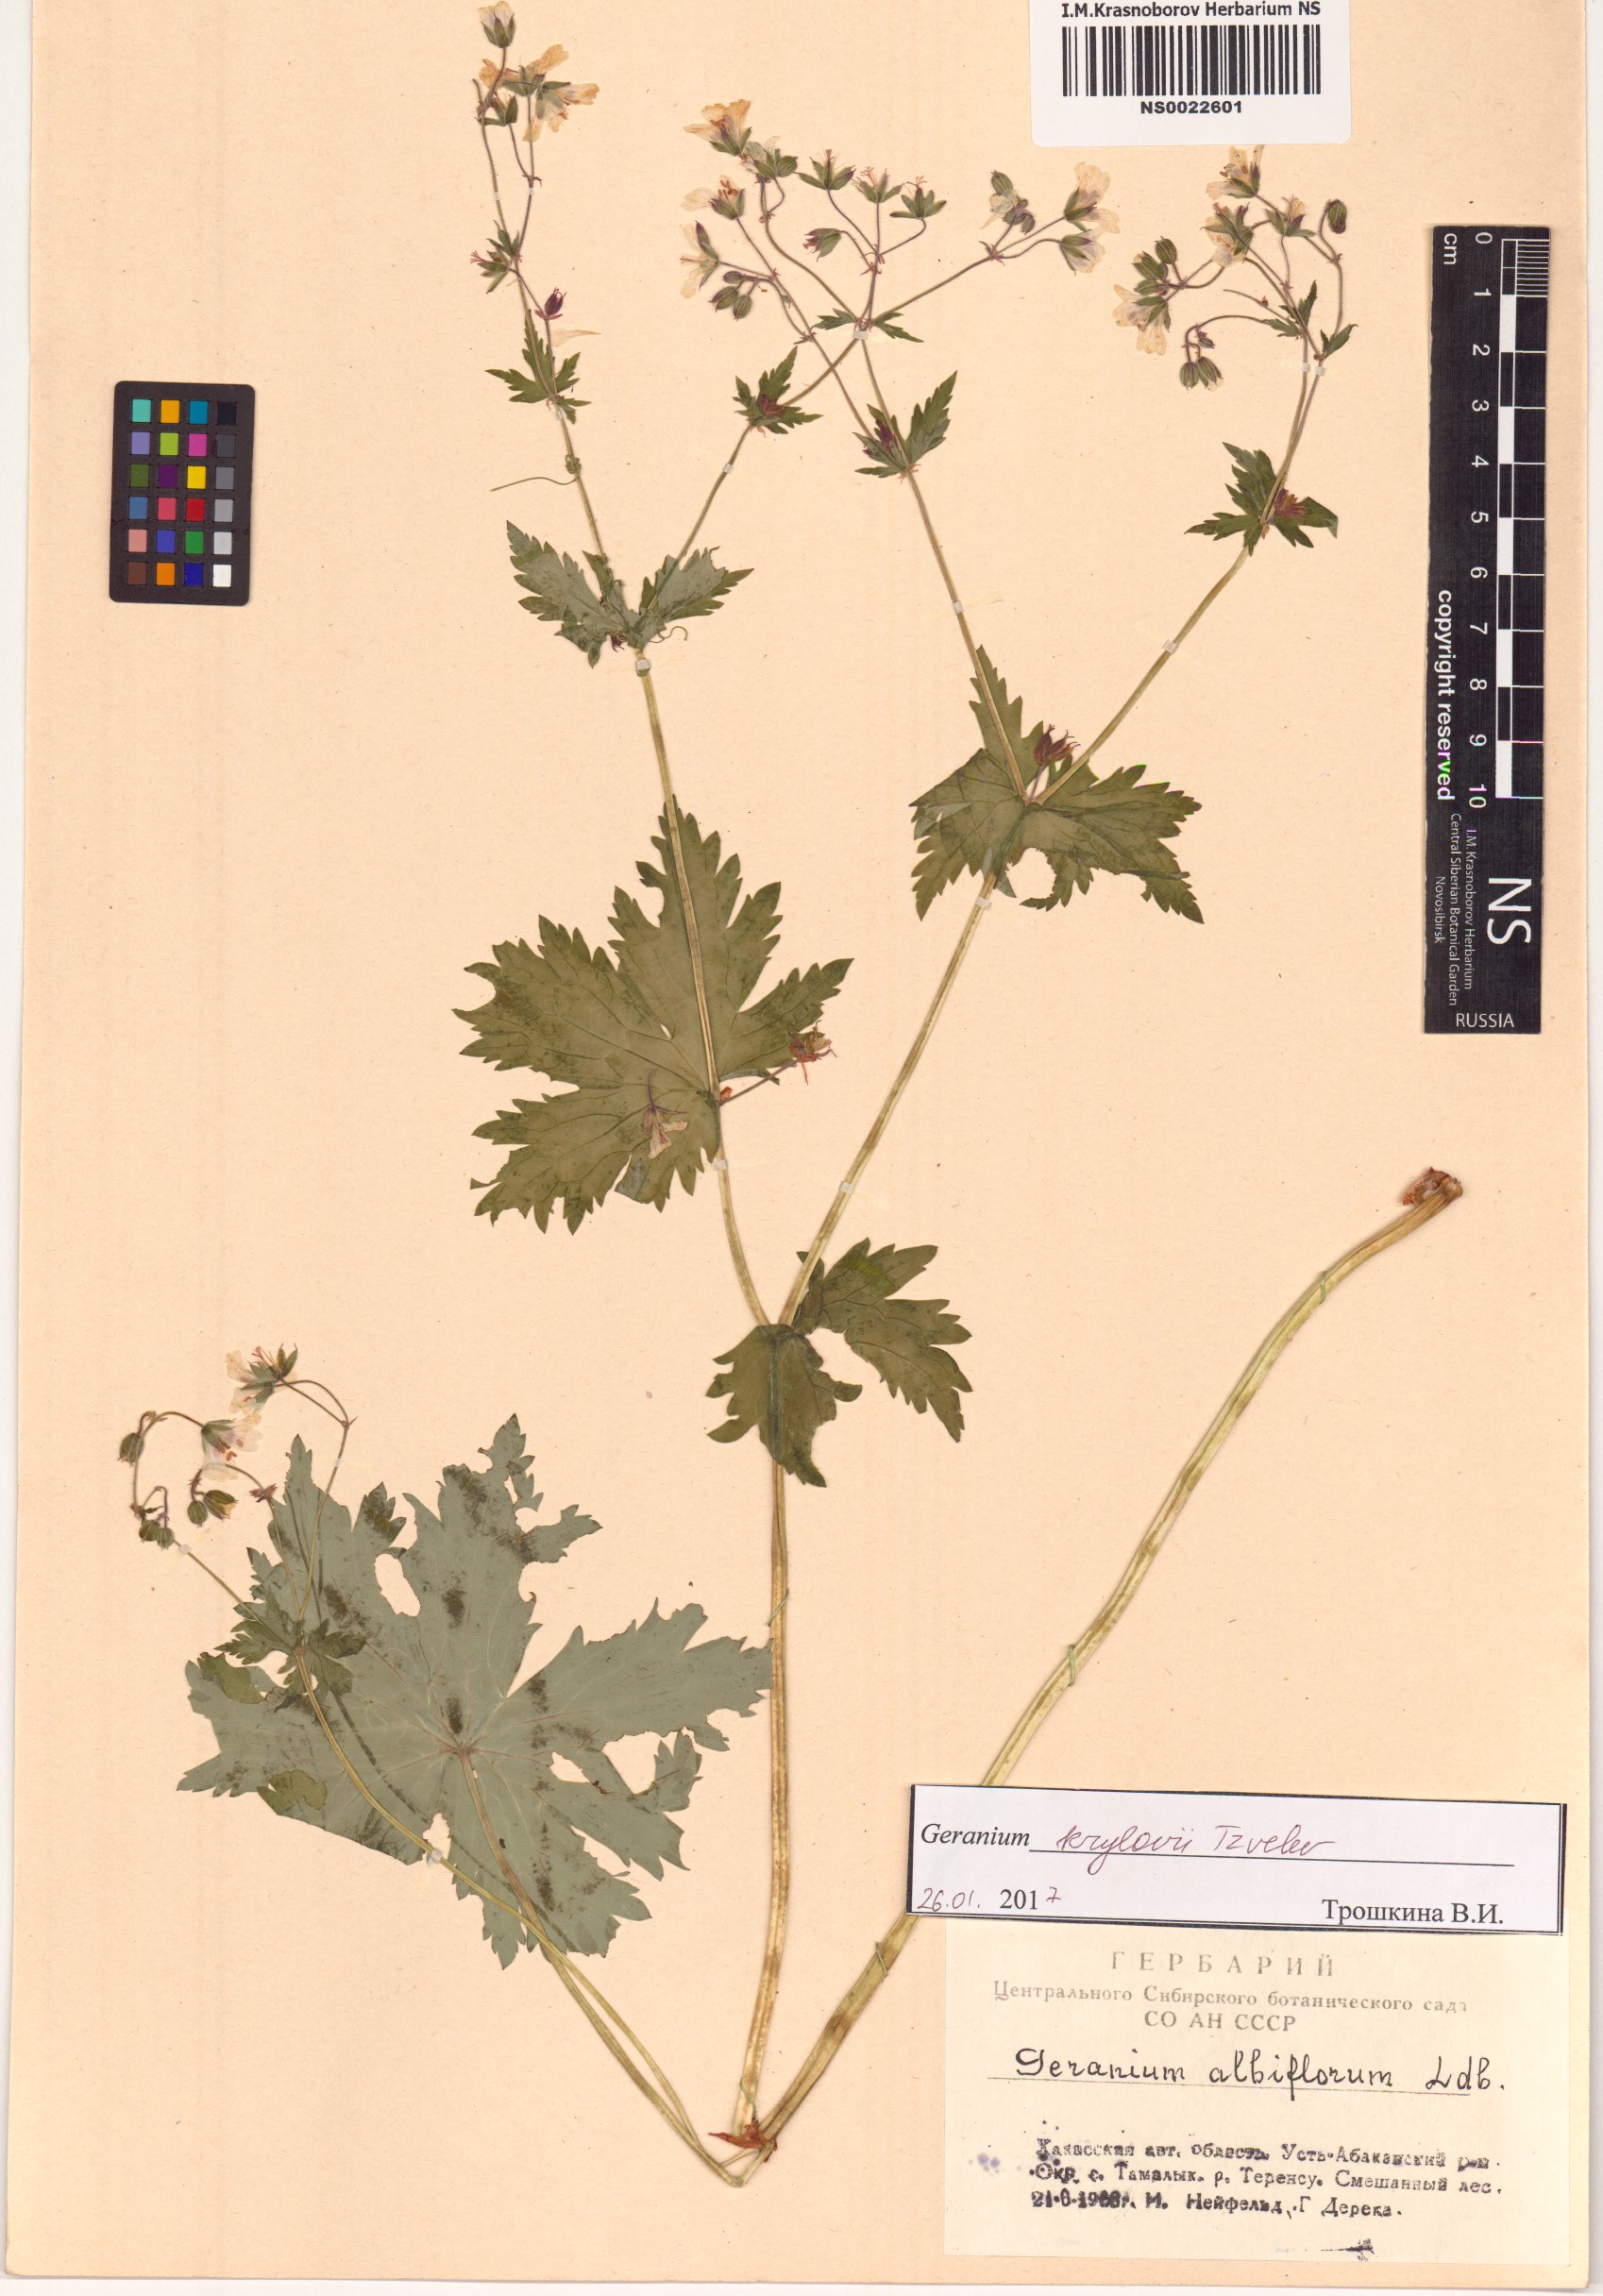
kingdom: Plantae
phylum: Tracheophyta
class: Magnoliopsida
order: Geraniales
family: Geraniaceae
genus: Geranium
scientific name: Geranium sylvaticum
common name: Wood crane's-bill
